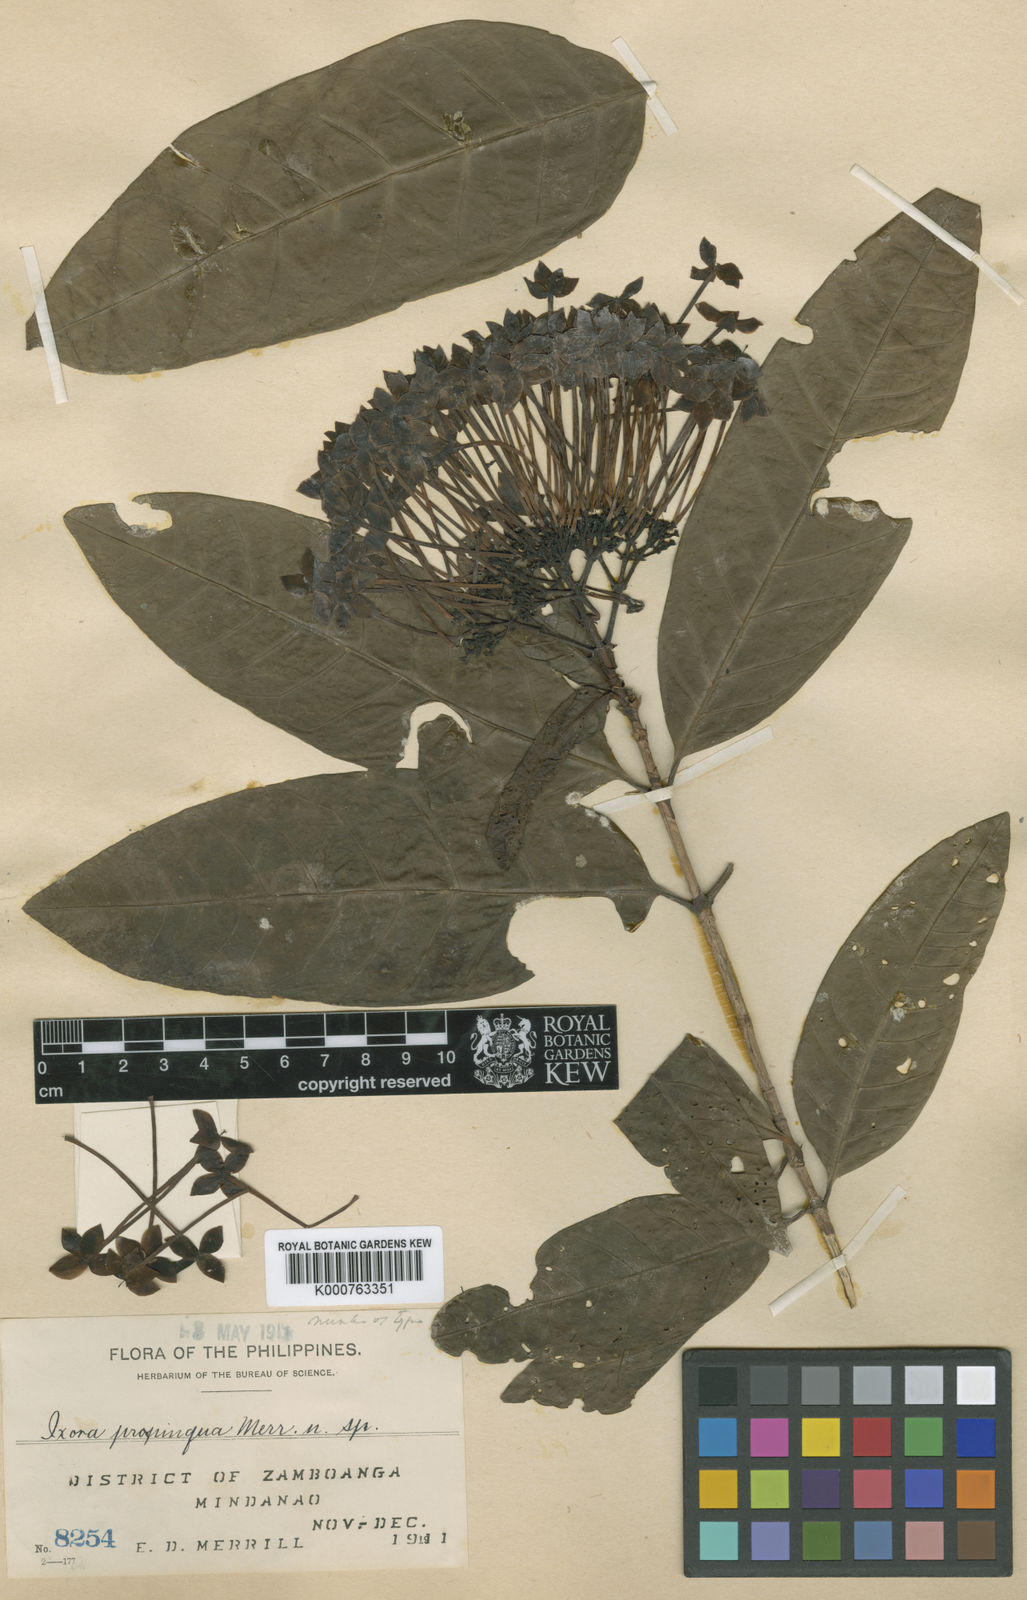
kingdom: Plantae
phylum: Tracheophyta
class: Magnoliopsida
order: Gentianales
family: Rubiaceae
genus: Ixora
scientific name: Ixora propinqua
